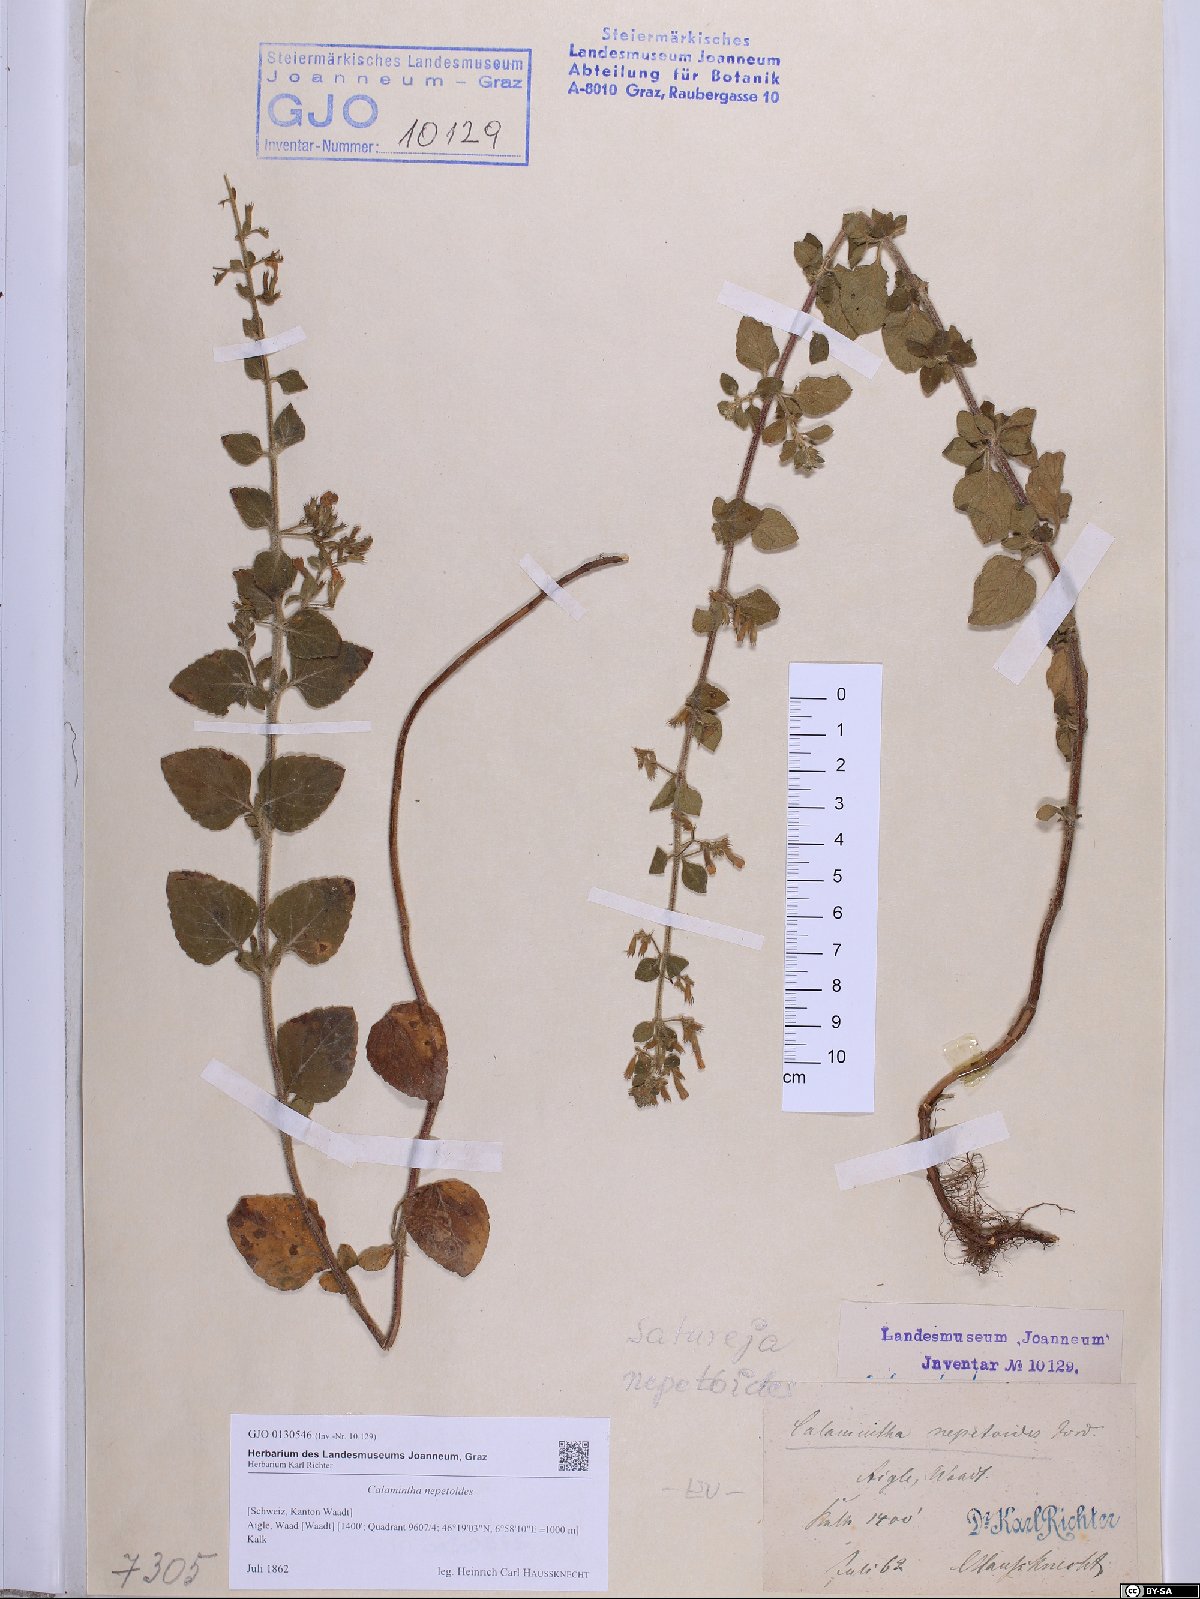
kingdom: Plantae
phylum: Tracheophyta
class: Magnoliopsida
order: Lamiales
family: Lamiaceae
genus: Clinopodium
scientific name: Clinopodium nepeta
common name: Lesser calamint
